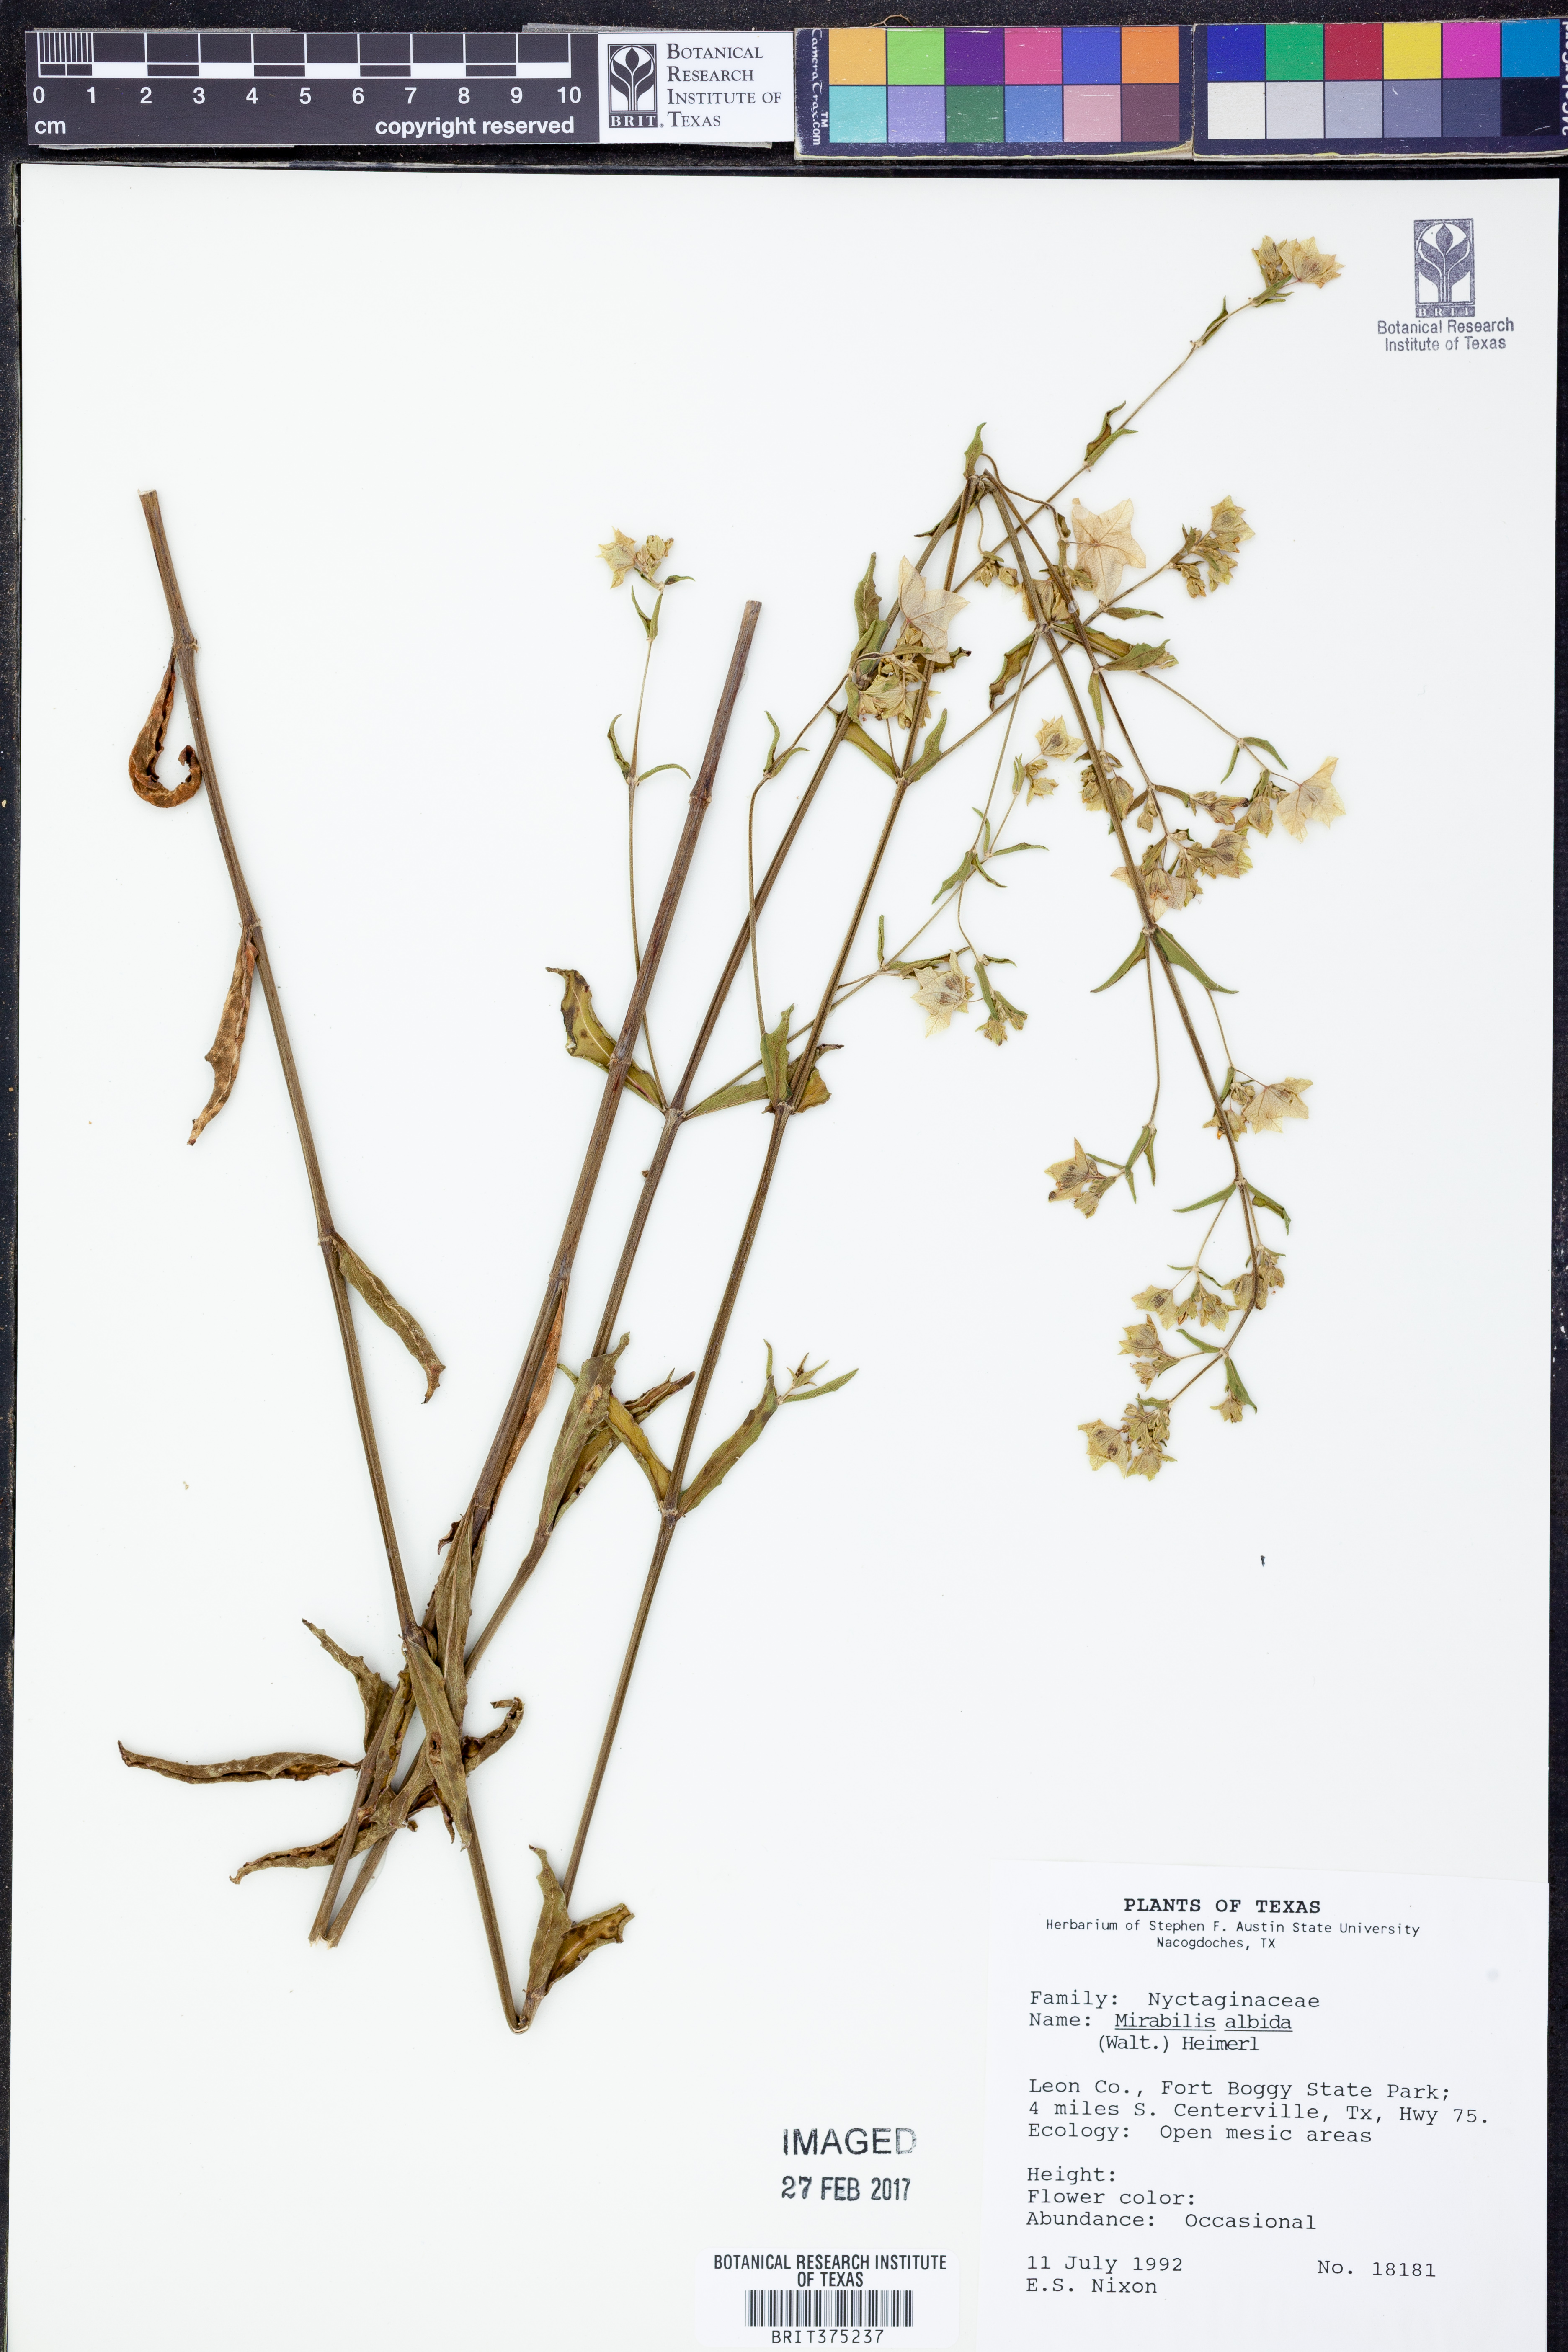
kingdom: Plantae
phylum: Tracheophyta
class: Magnoliopsida
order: Caryophyllales
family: Nyctaginaceae
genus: Mirabilis
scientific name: Mirabilis albida
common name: Hairy four-o'clock
